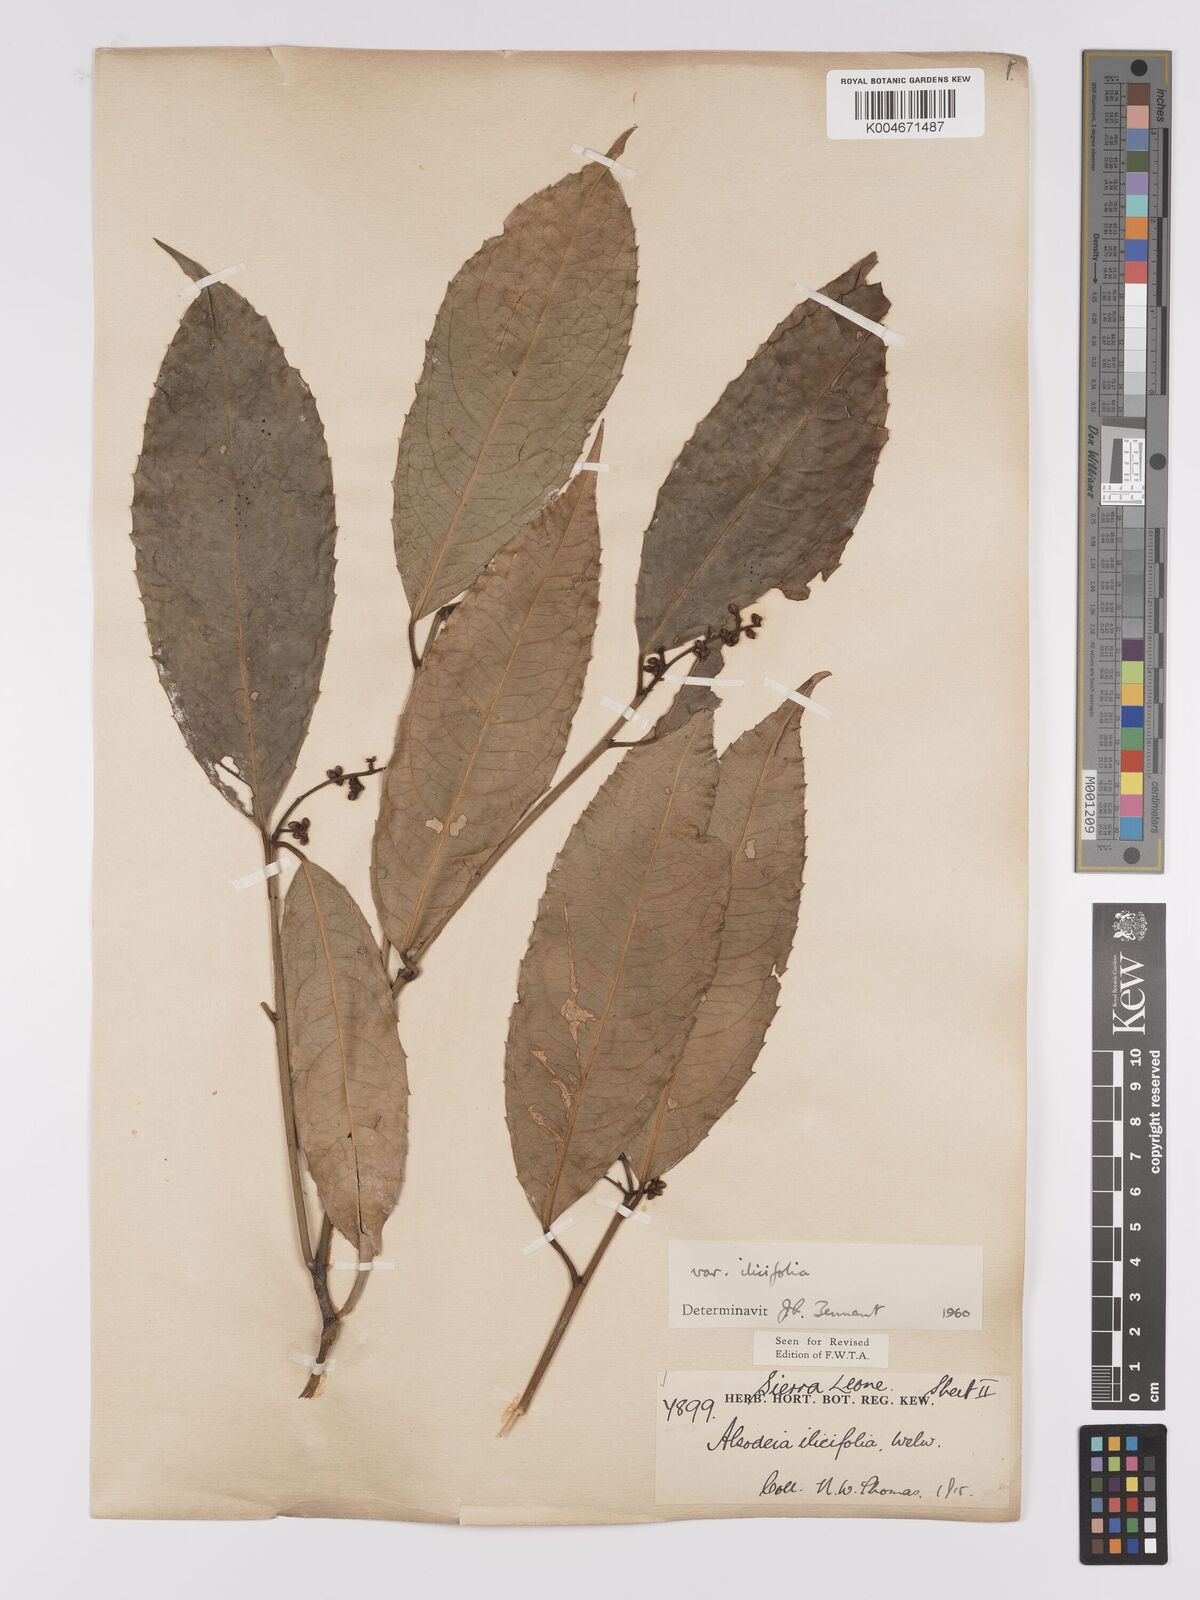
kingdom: Plantae
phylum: Tracheophyta
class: Magnoliopsida
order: Malpighiales
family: Violaceae
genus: Rinorea
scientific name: Rinorea ilicifolia
